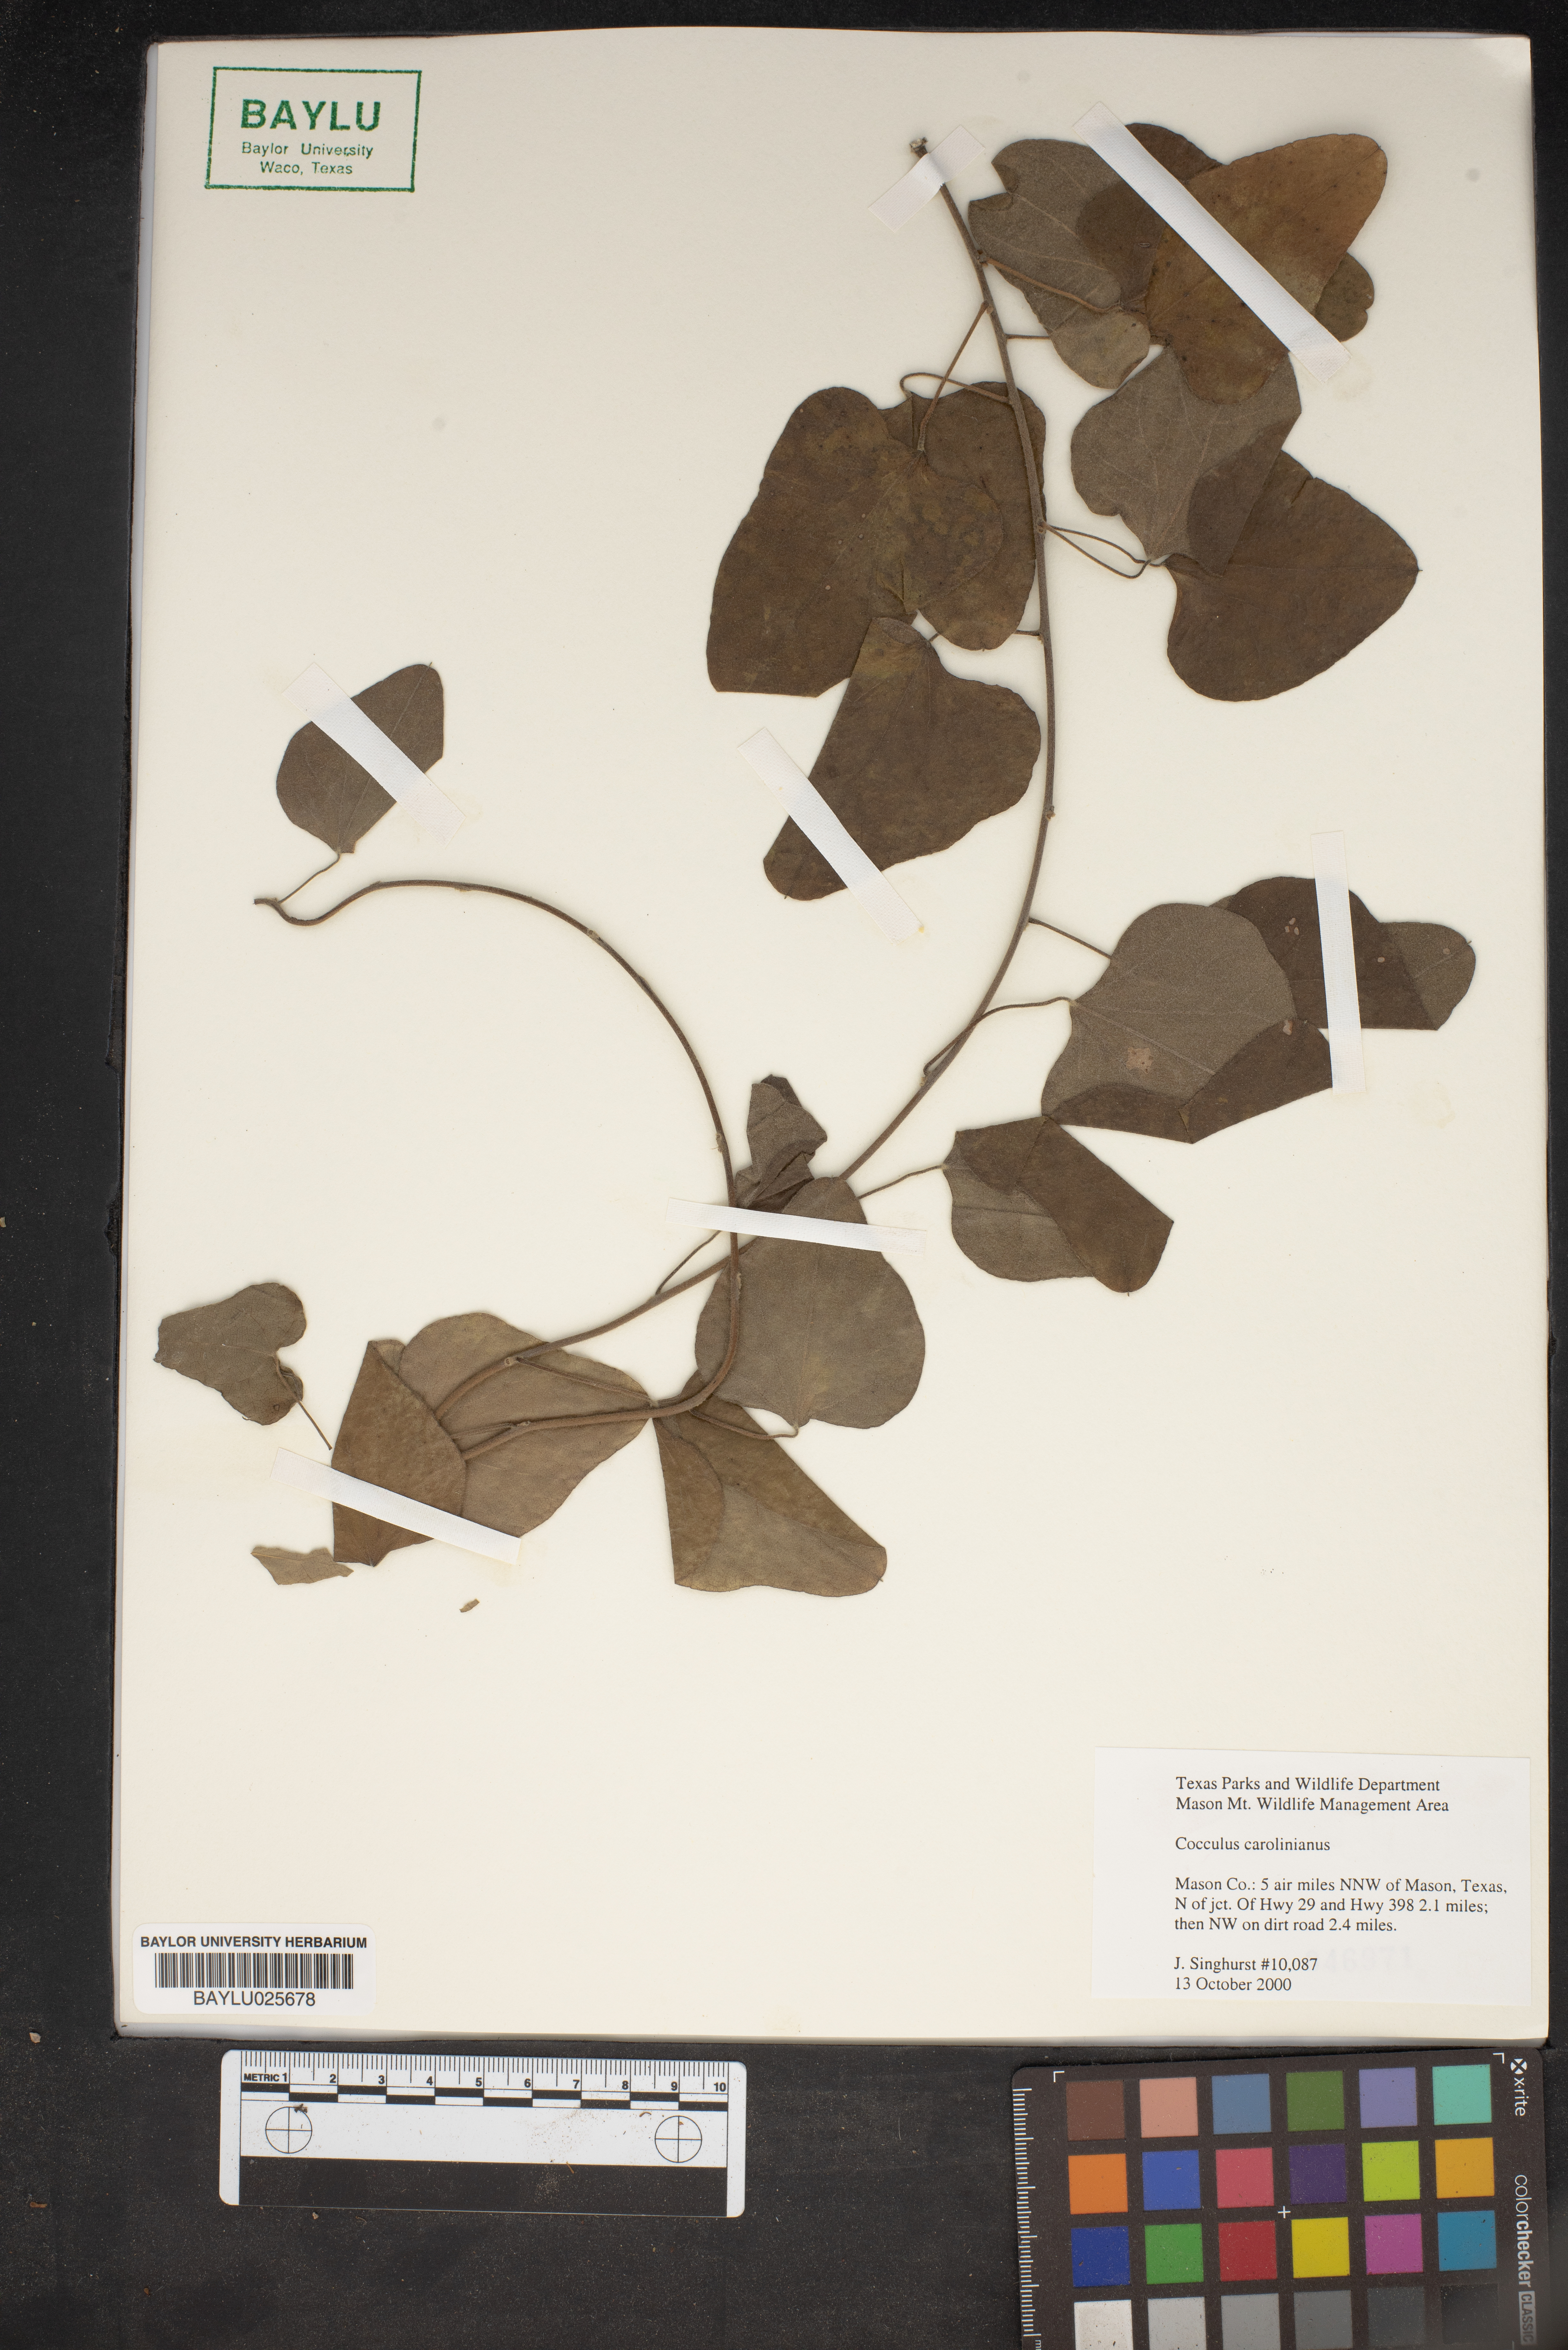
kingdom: Plantae
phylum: Tracheophyta
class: Magnoliopsida
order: Ranunculales
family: Menispermaceae
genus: Cocculus
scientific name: Cocculus carolinus
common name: Carolina moonseed
